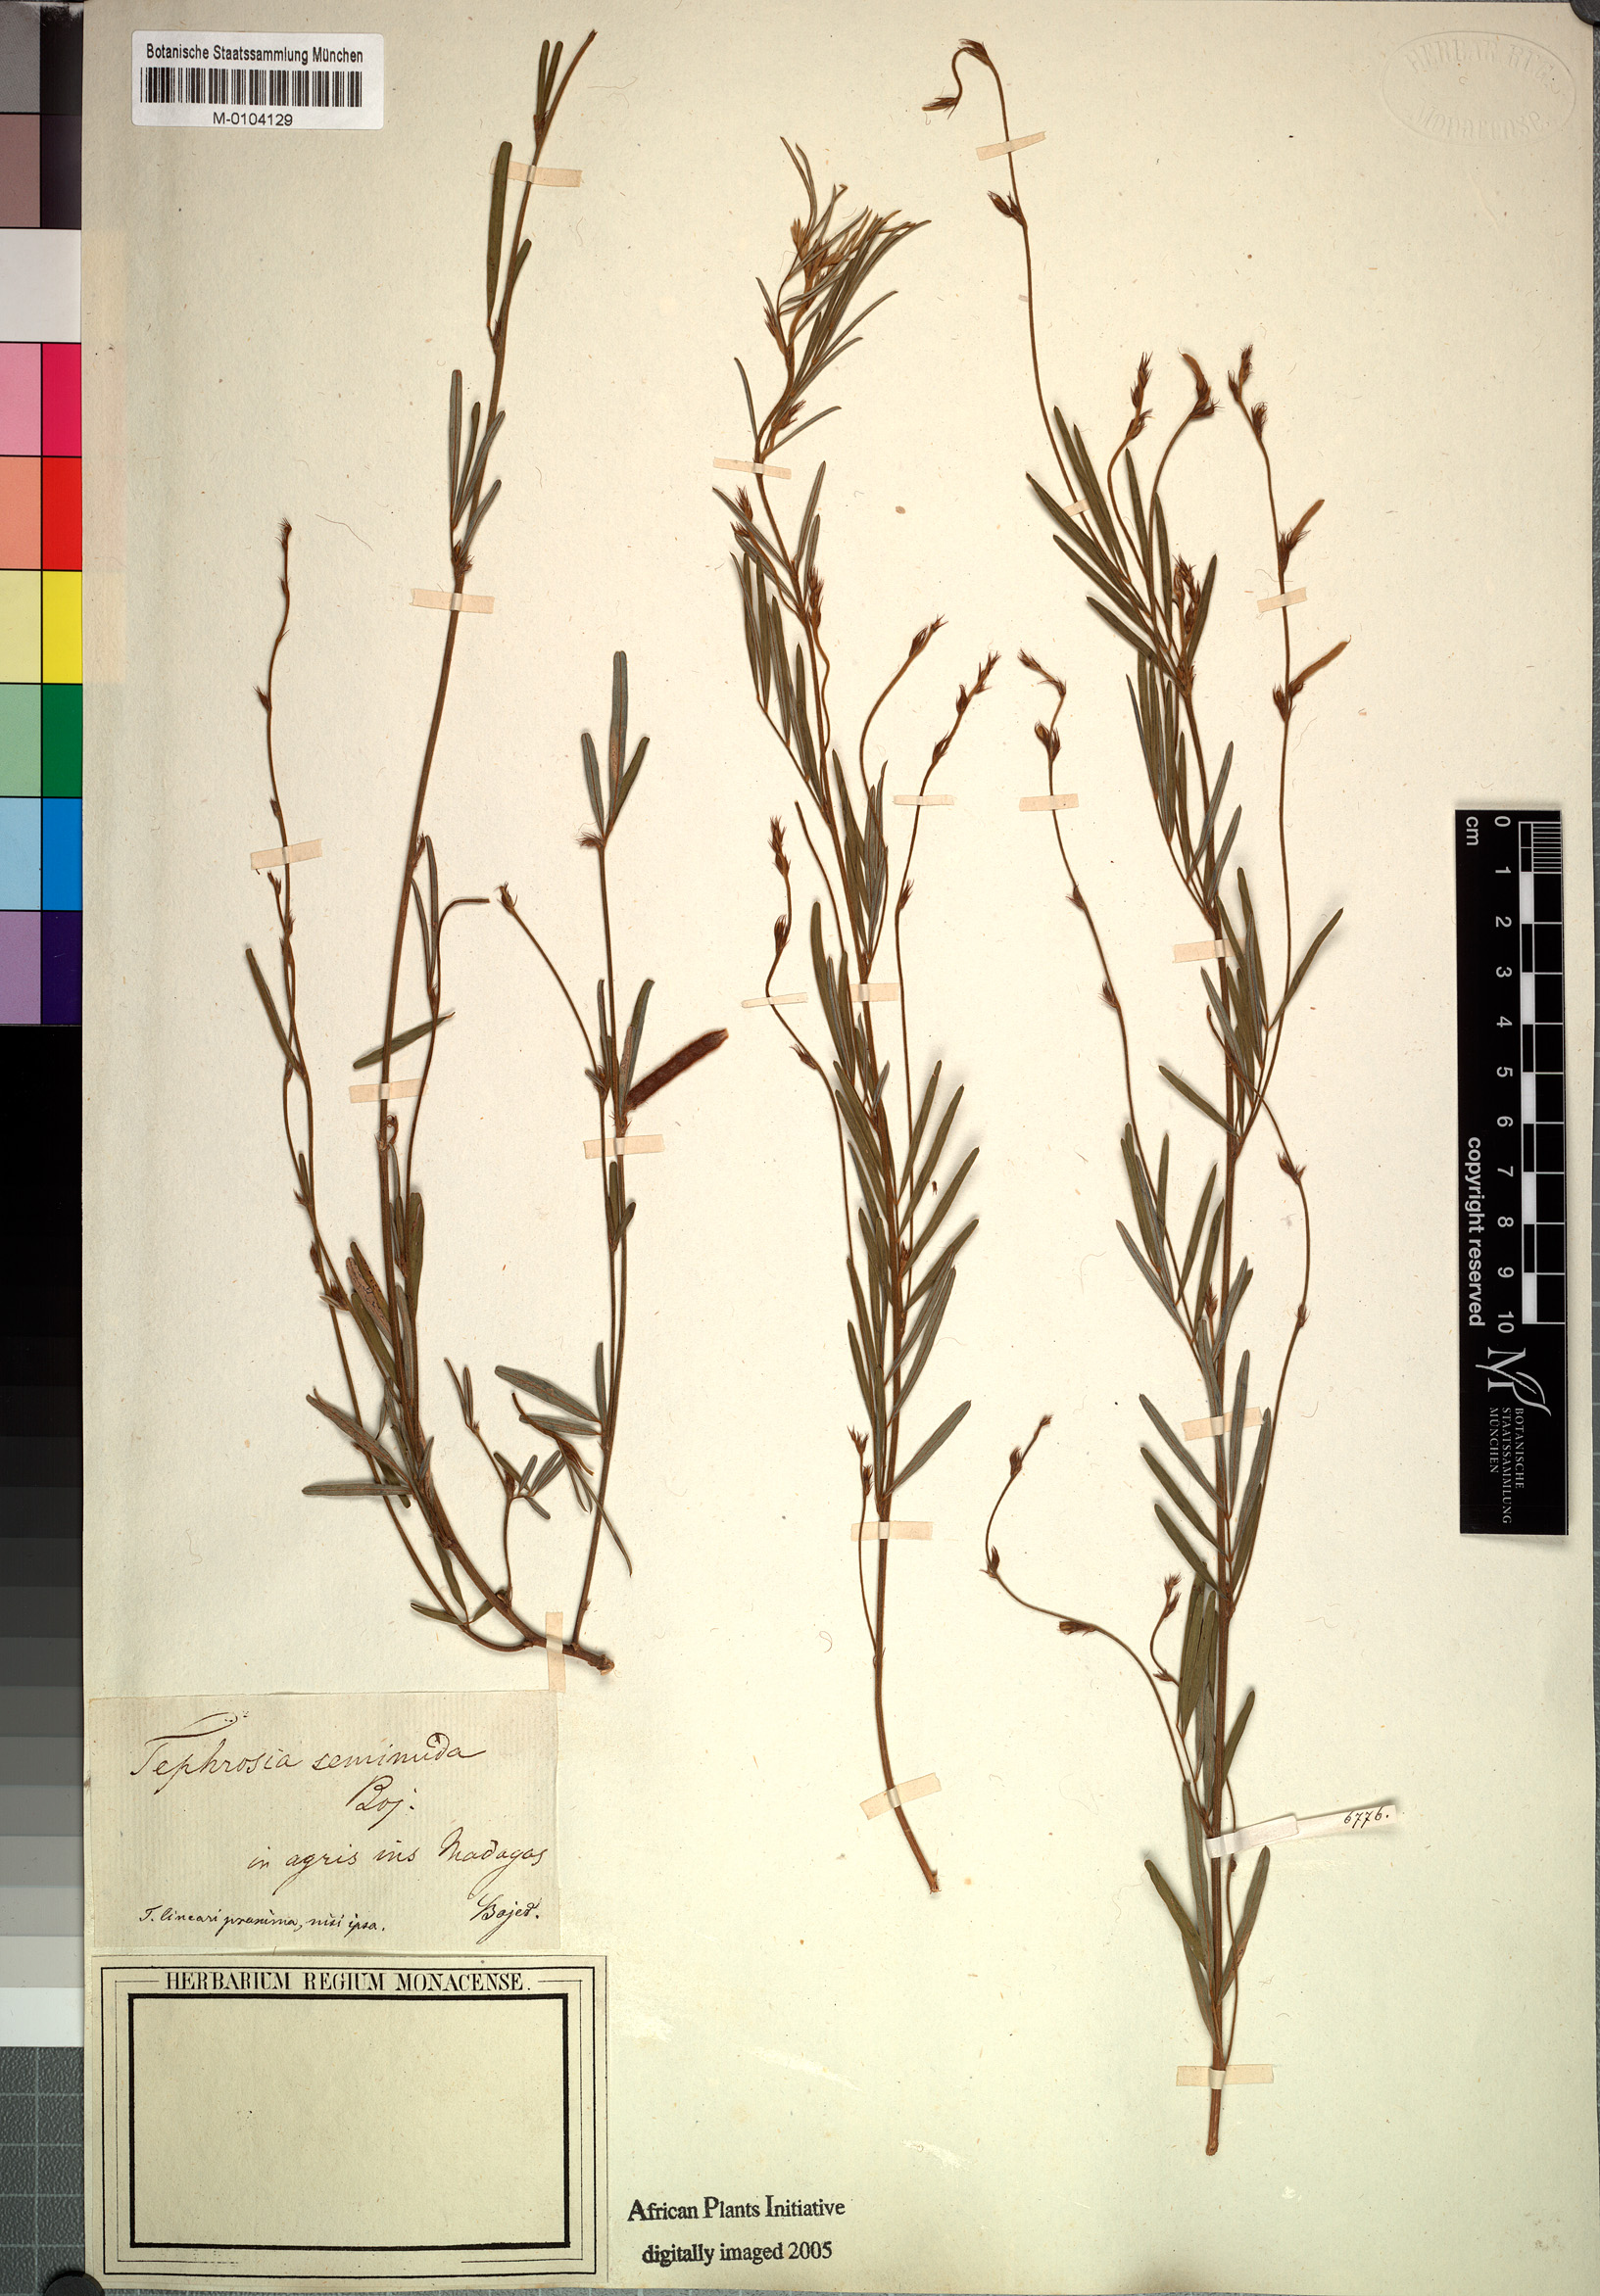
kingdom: Plantae
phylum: Tracheophyta
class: Magnoliopsida
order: Fabales
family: Fabaceae
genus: Tephrosia
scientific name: Tephrosia linearis
